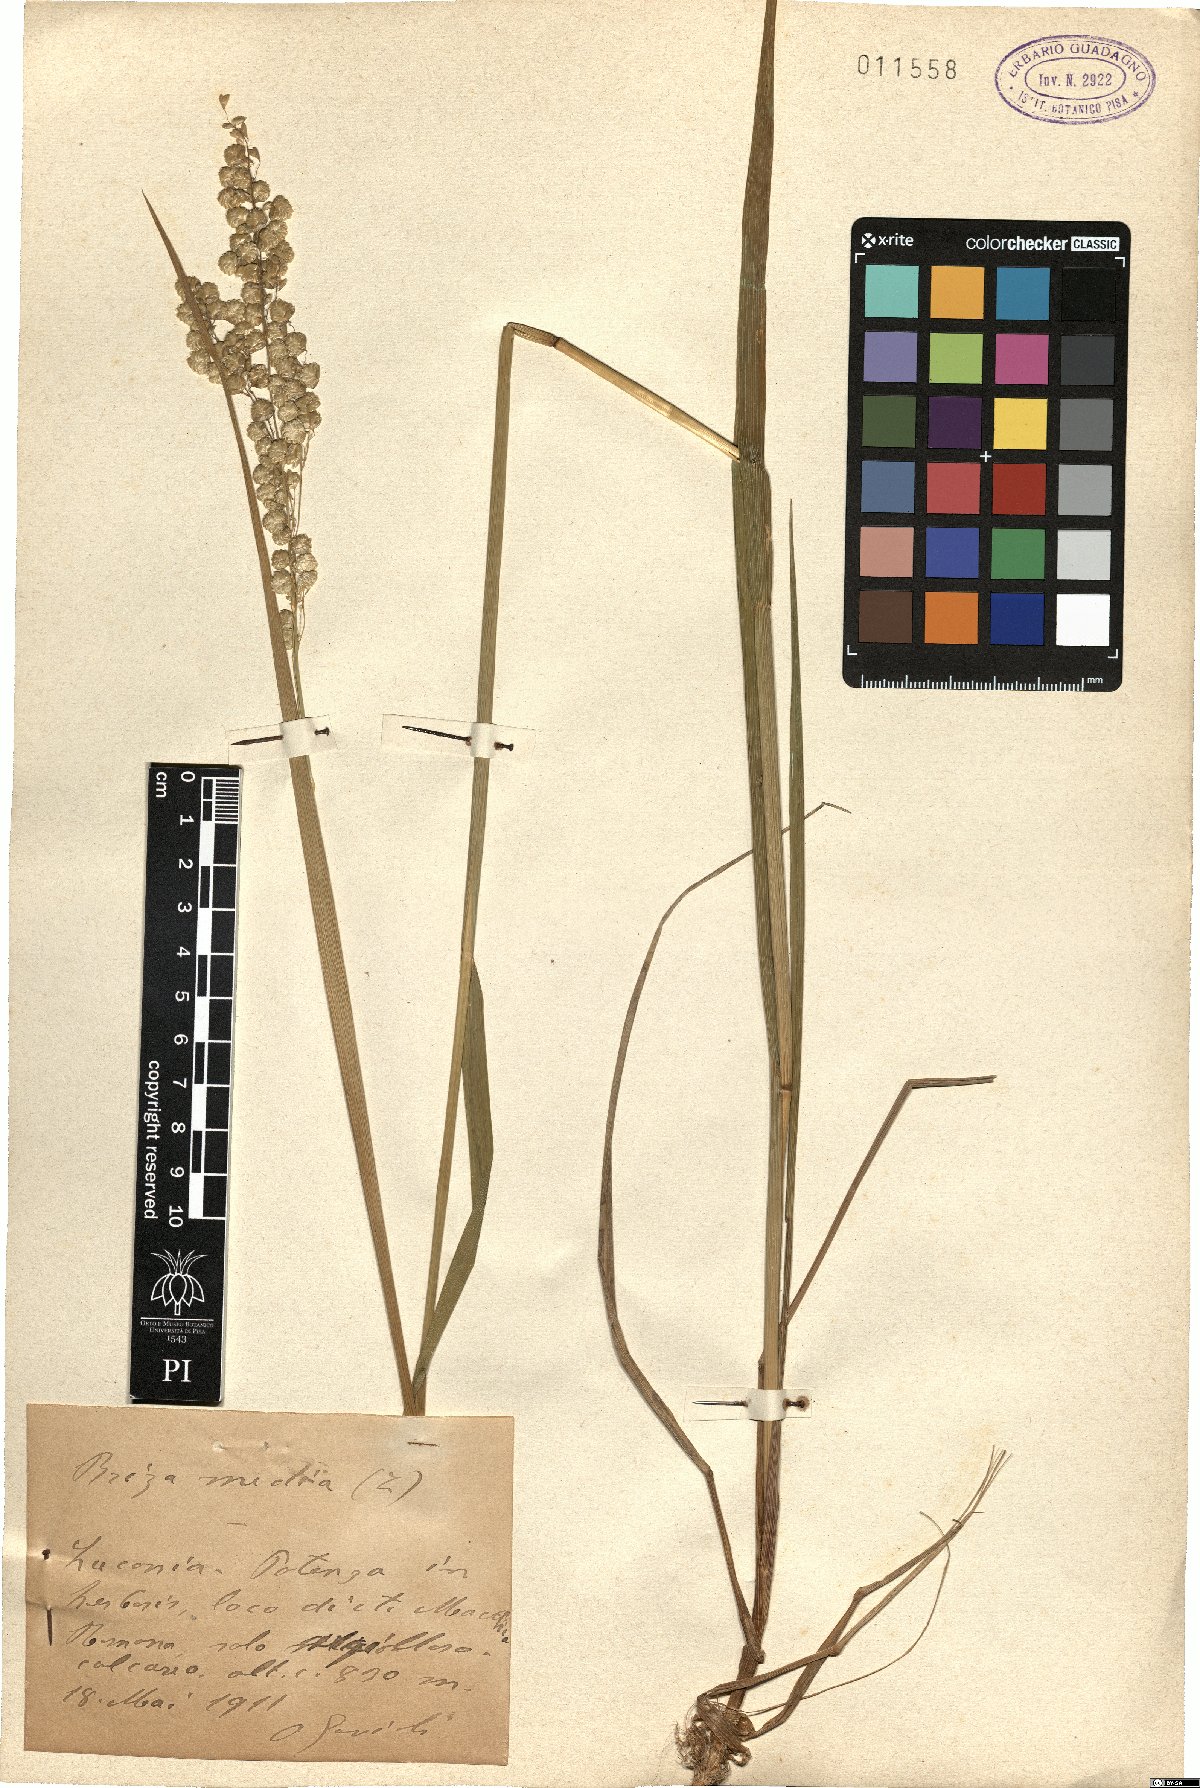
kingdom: Plantae
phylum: Tracheophyta
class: Liliopsida
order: Poales
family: Poaceae
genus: Briza
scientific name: Briza media
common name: Quaking grass
